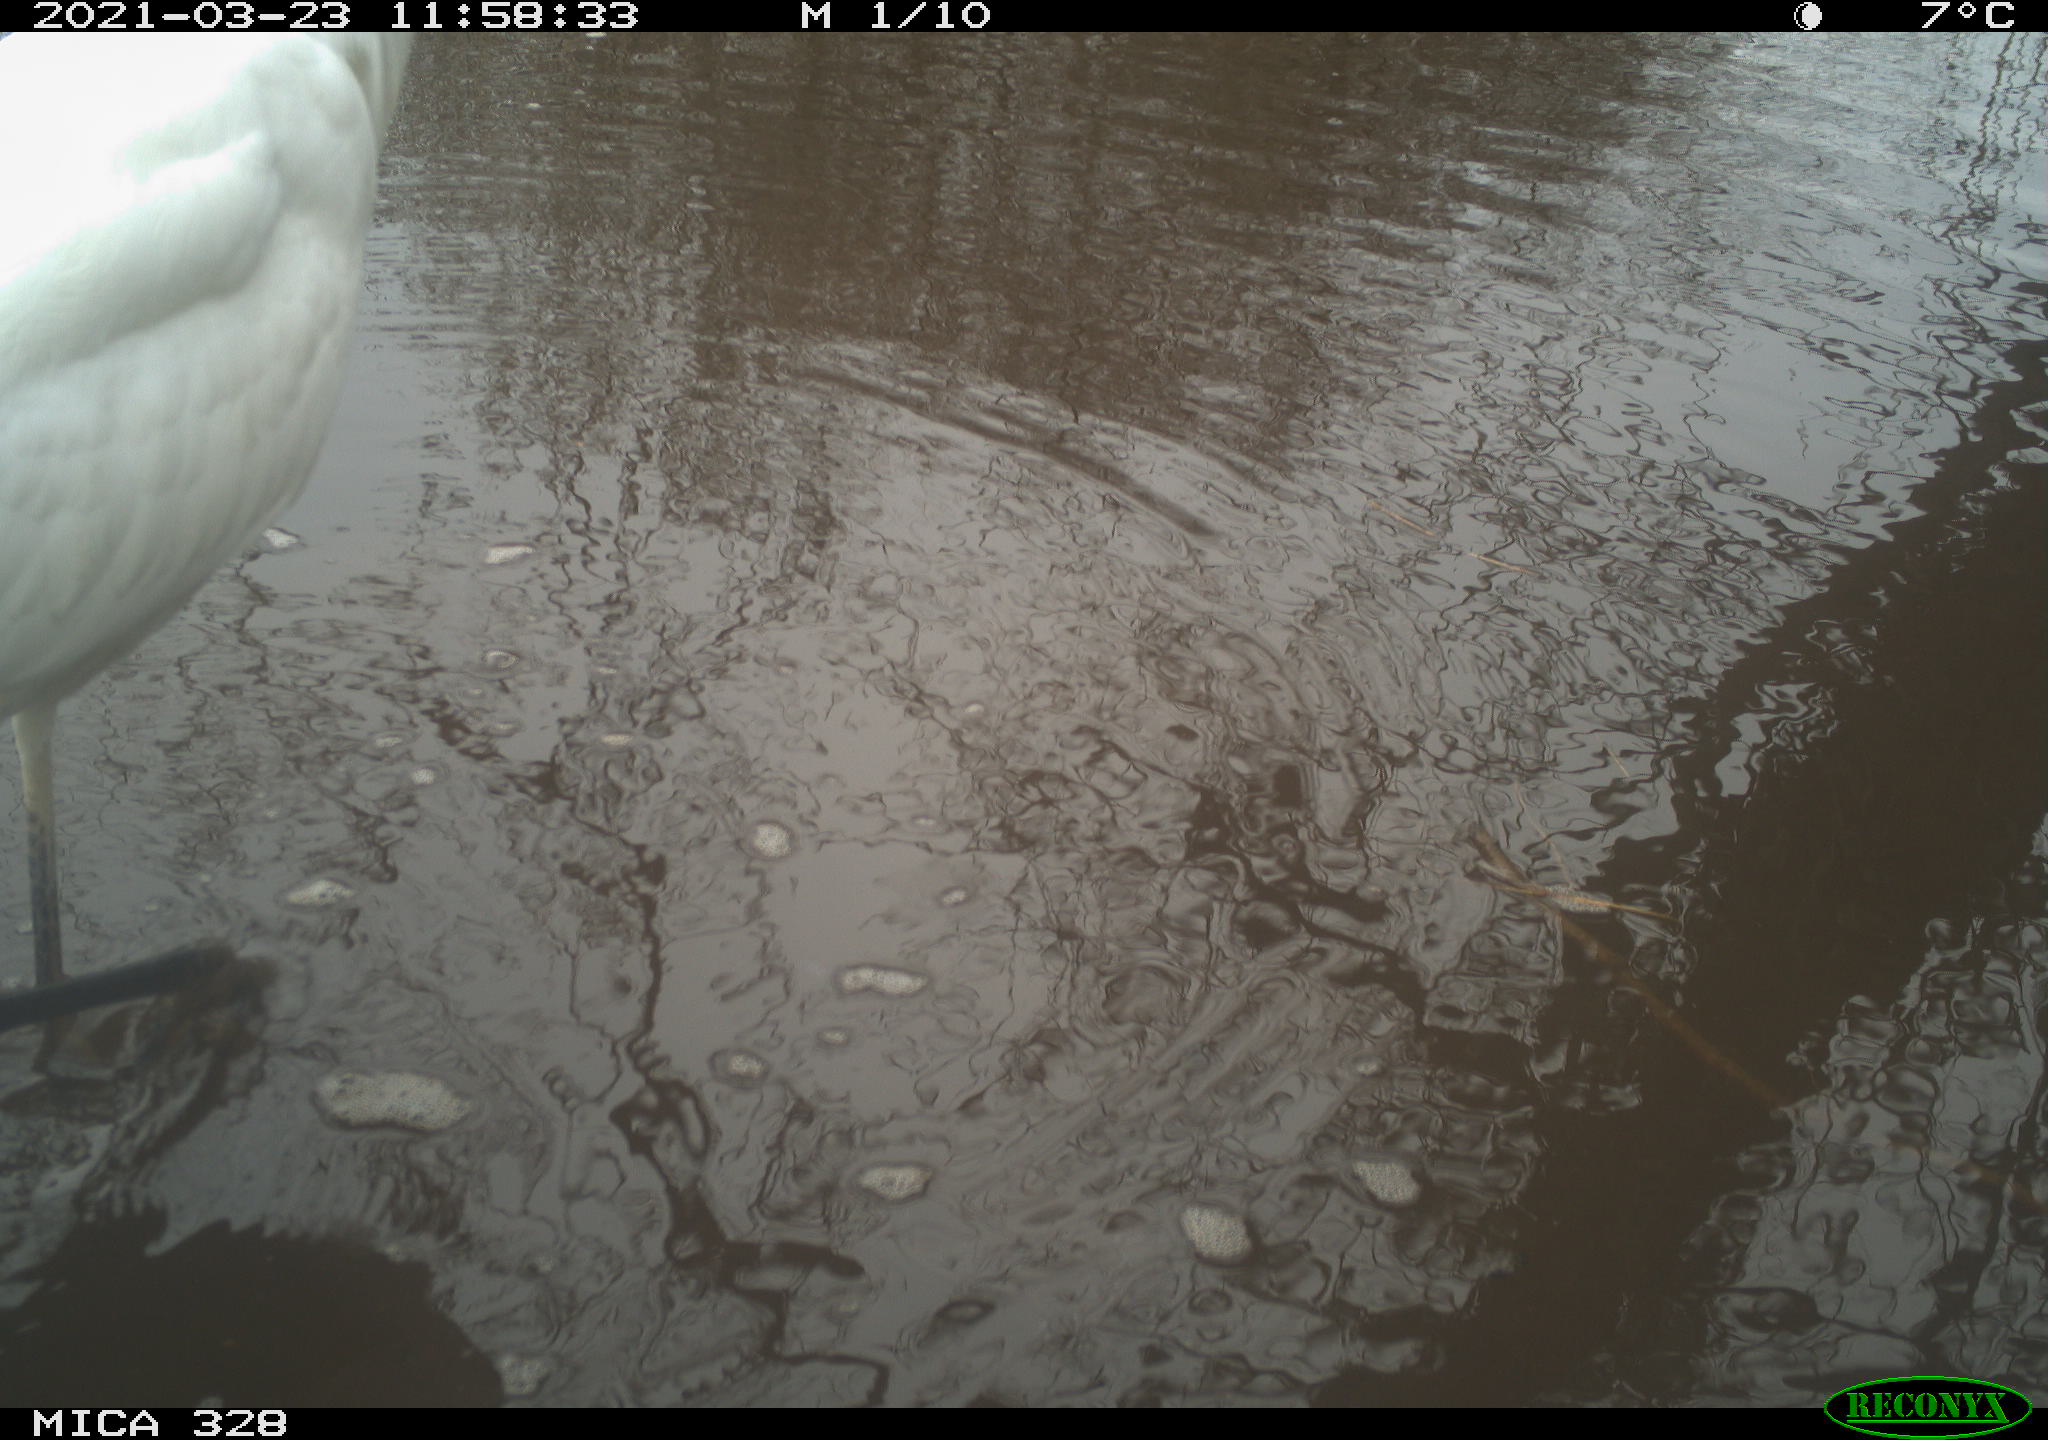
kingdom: Animalia
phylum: Chordata
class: Aves
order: Pelecaniformes
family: Ardeidae
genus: Ardea
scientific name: Ardea alba
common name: Great egret
